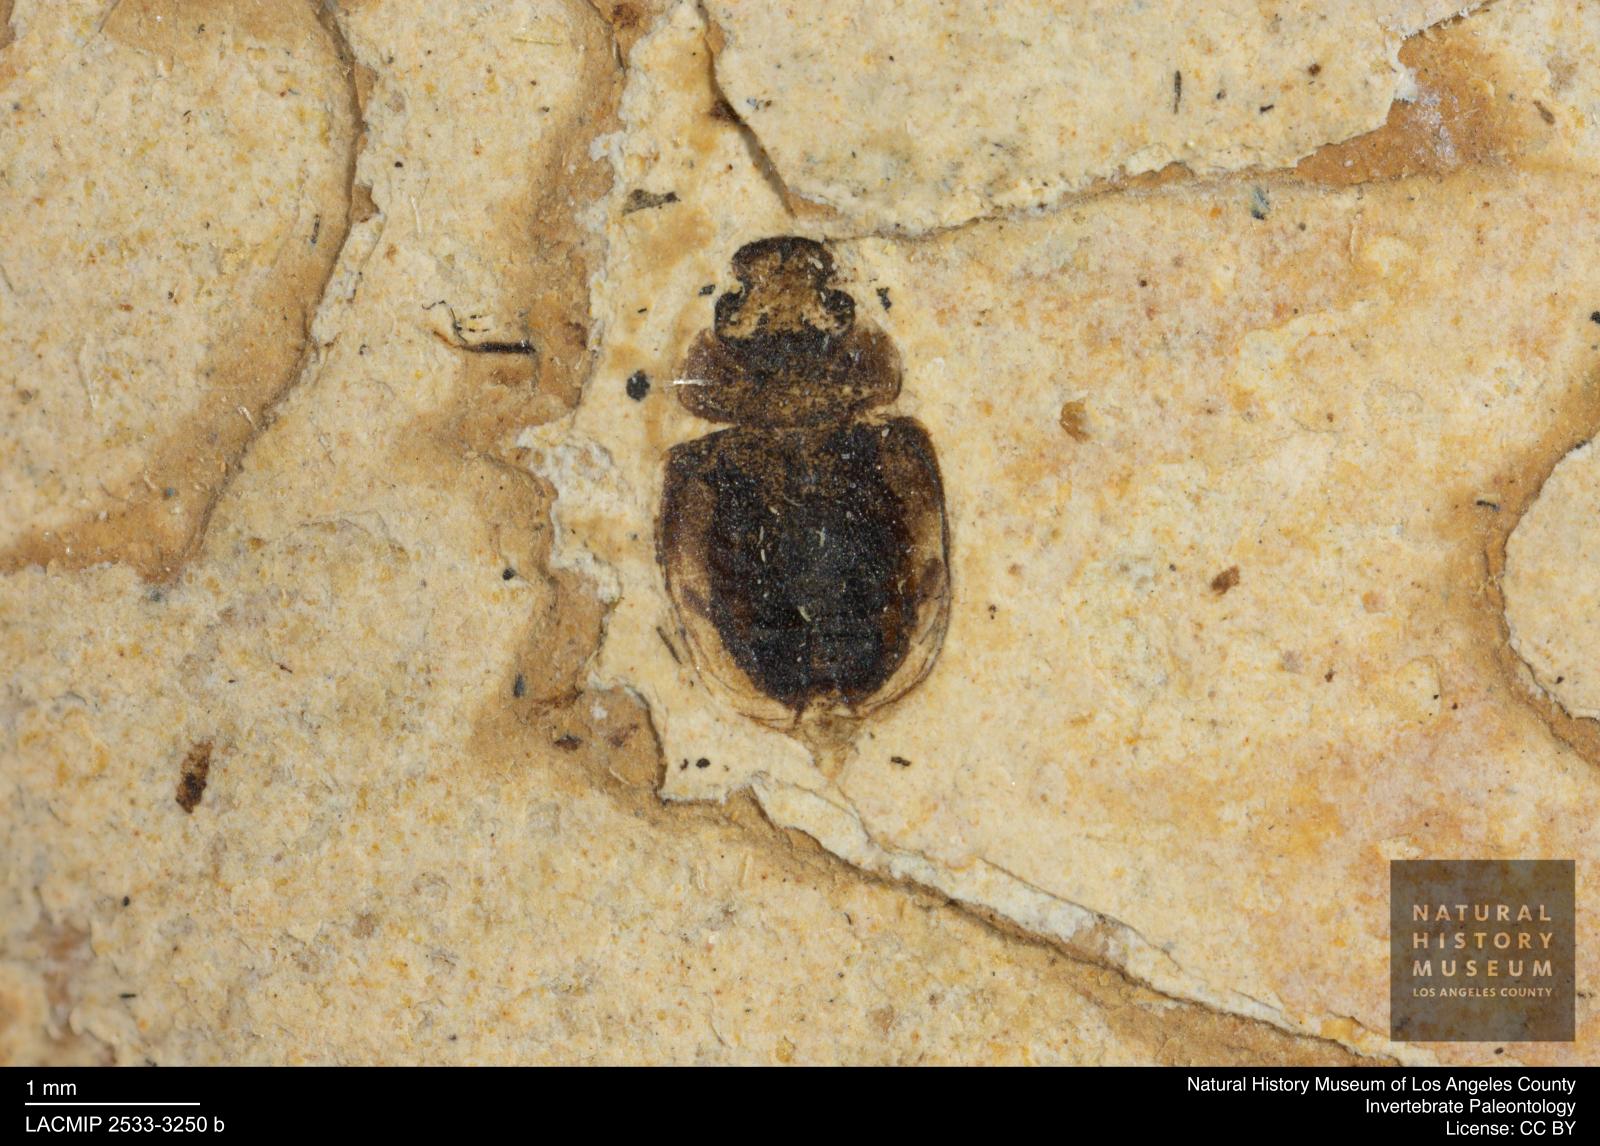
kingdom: Animalia
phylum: Arthropoda
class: Insecta
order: Coleoptera
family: Hydrophilidae
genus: Paracymus
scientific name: Paracymus excitatus
